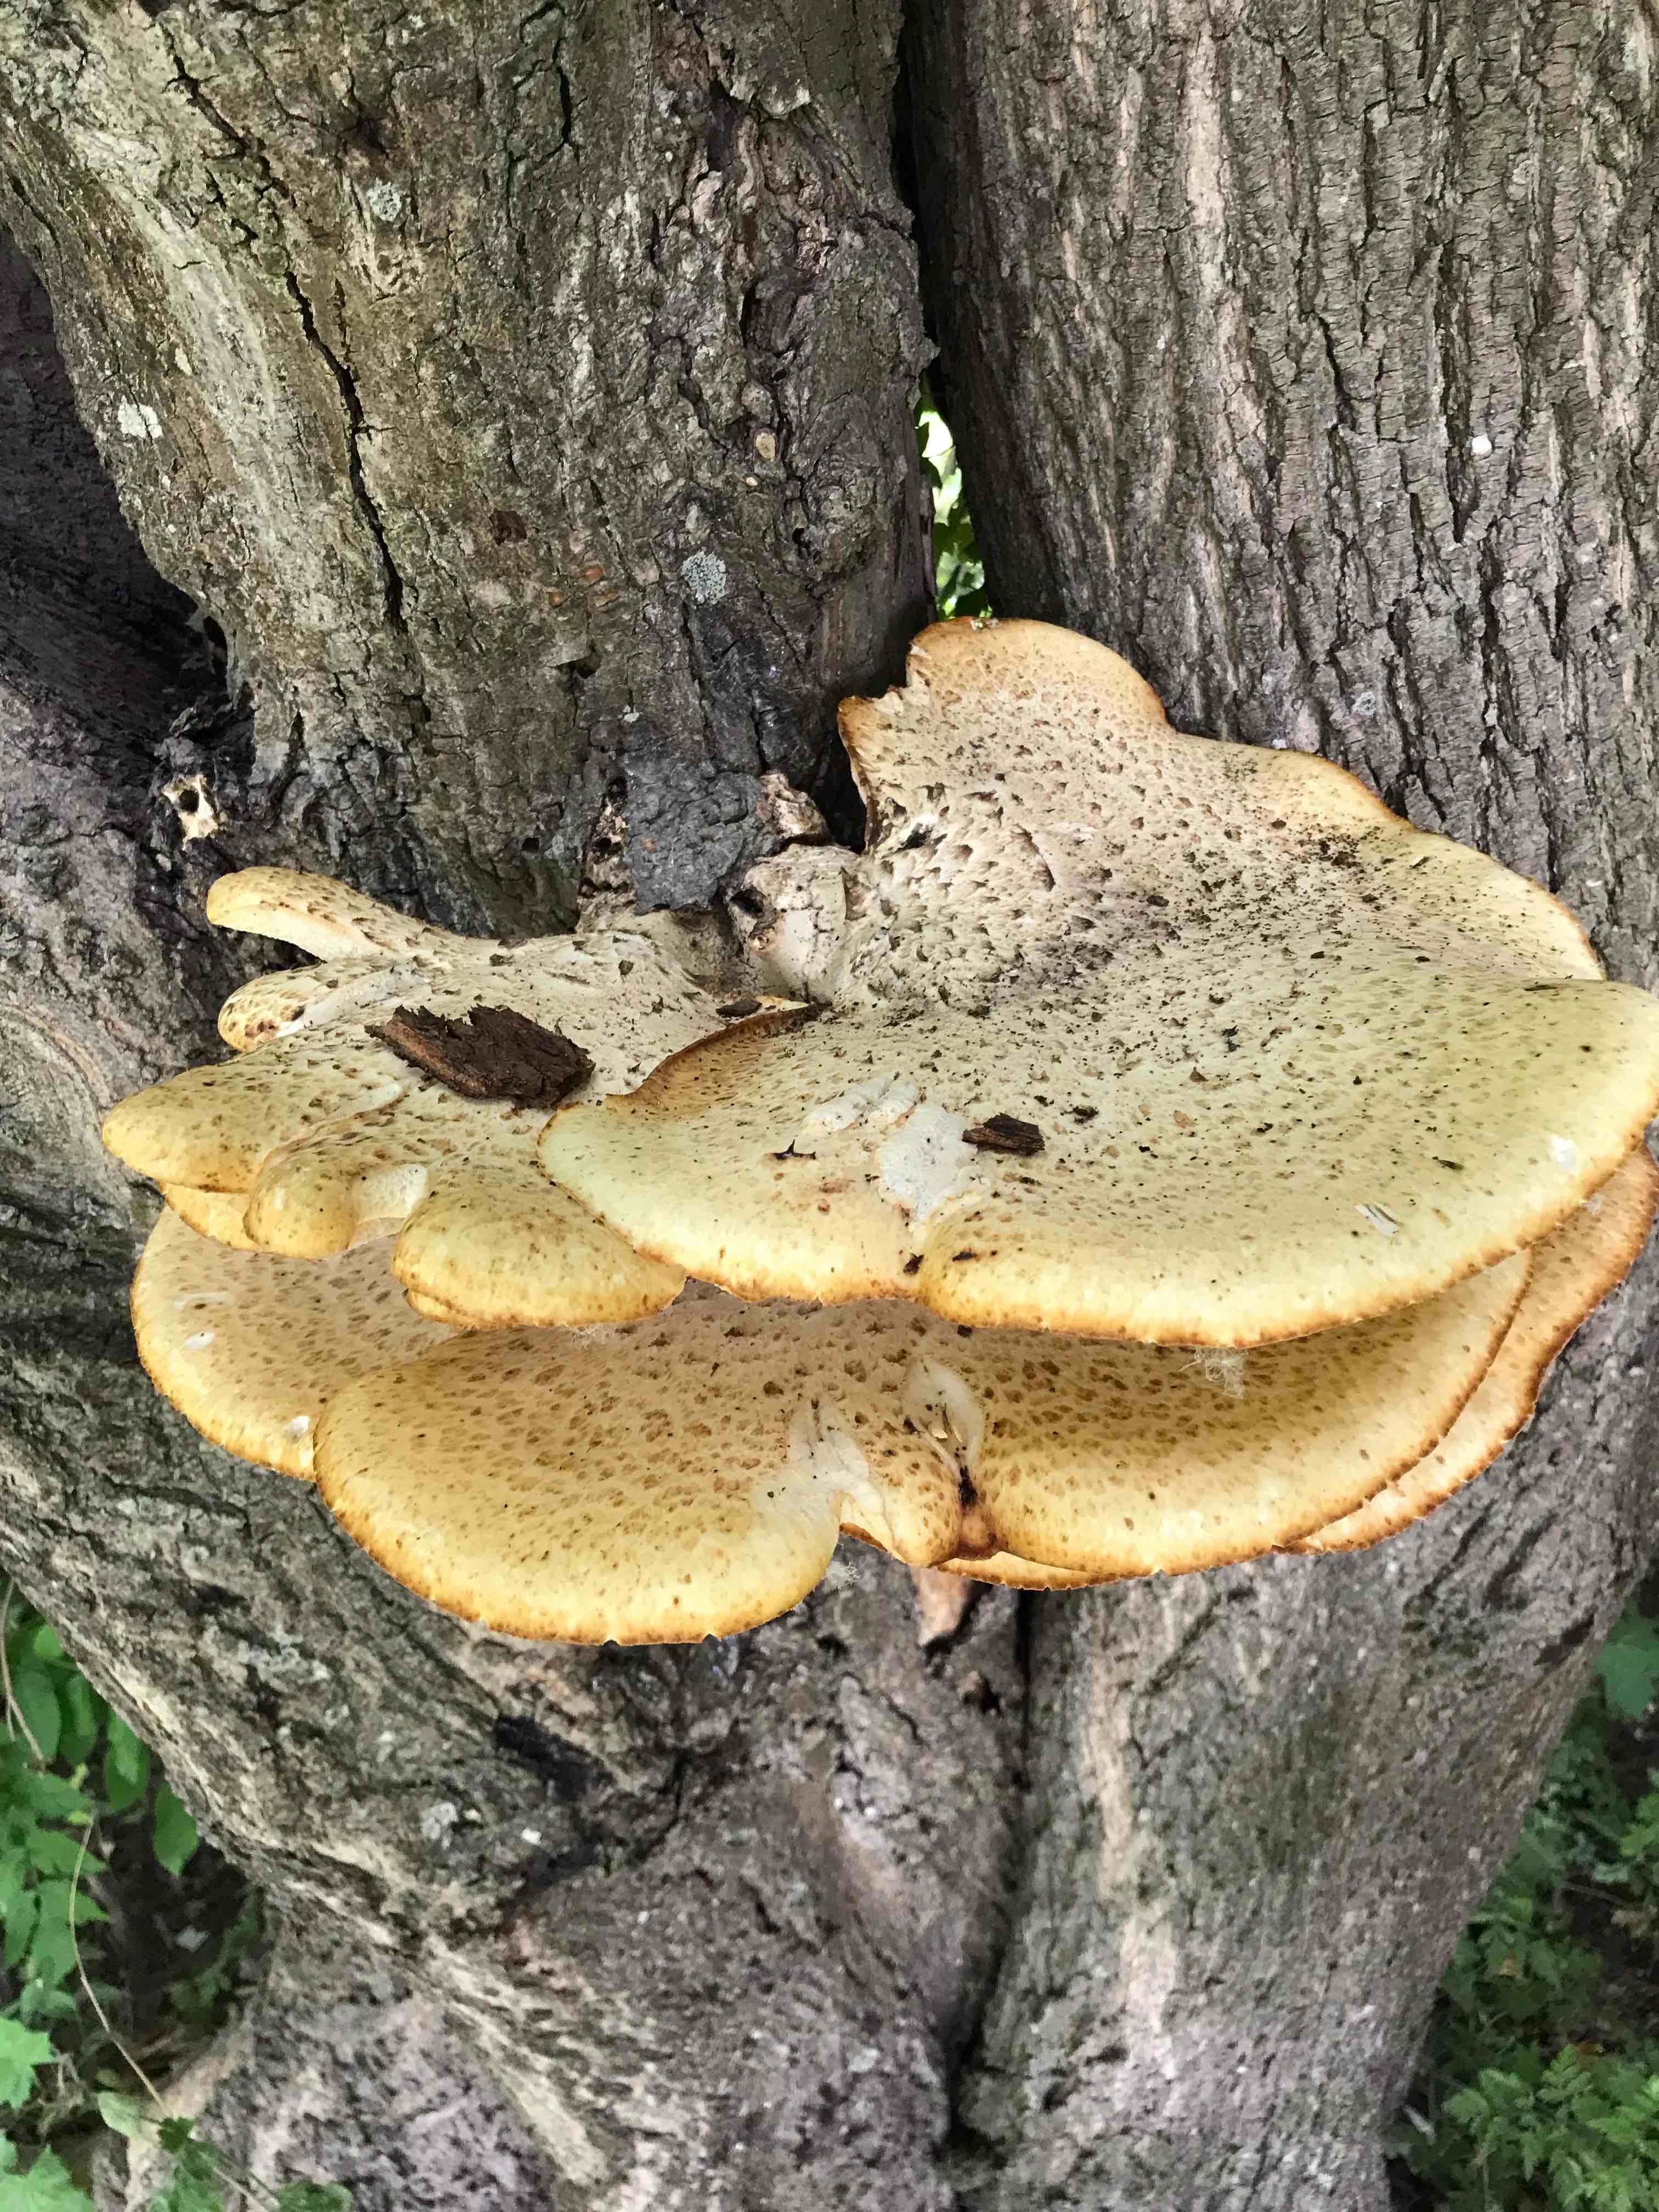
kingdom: Fungi
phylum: Basidiomycota
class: Agaricomycetes
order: Polyporales
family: Polyporaceae
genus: Cerioporus
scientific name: Cerioporus squamosus
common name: skællet stilkporesvamp
